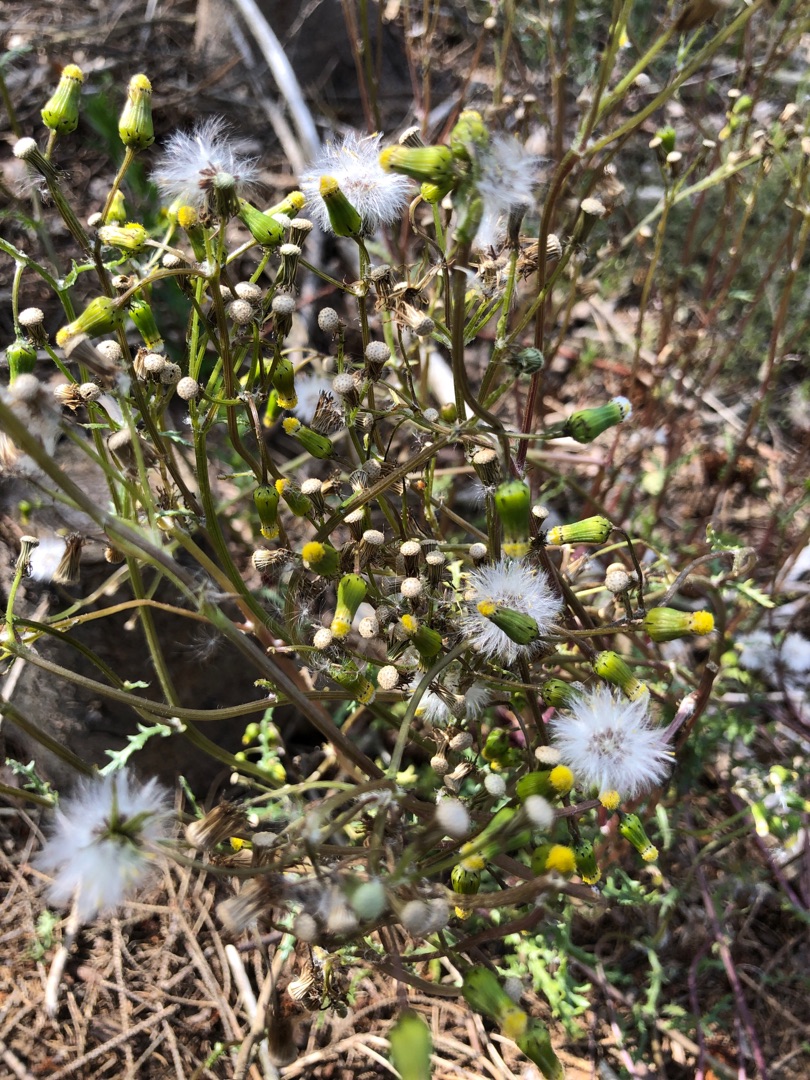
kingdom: Plantae
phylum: Tracheophyta
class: Magnoliopsida
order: Asterales
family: Asteraceae
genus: Senecio
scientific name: Senecio vulgaris
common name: Almindelig brandbæger
